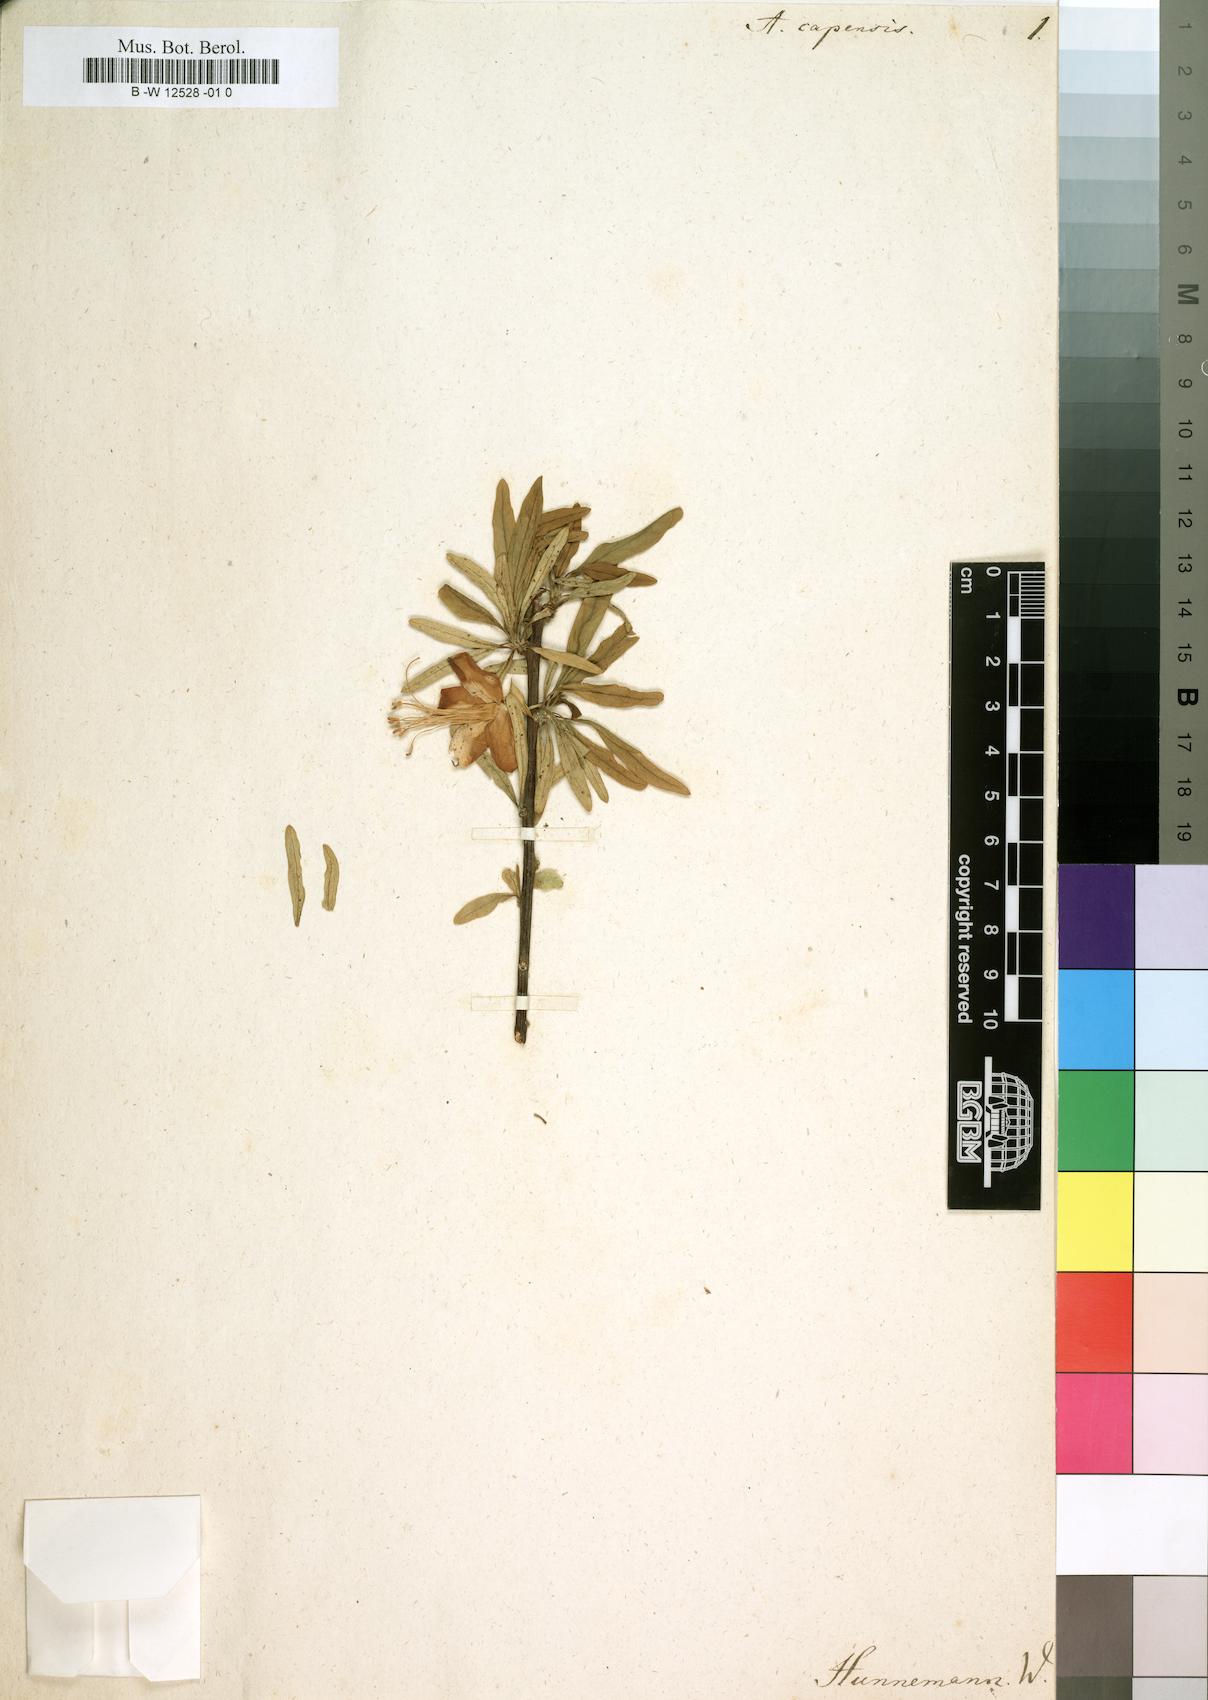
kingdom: Plantae
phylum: Tracheophyta
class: Magnoliopsida
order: Sapindales
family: Meliaceae
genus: Nymania
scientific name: Nymania capensis
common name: Chinese lantern tree
